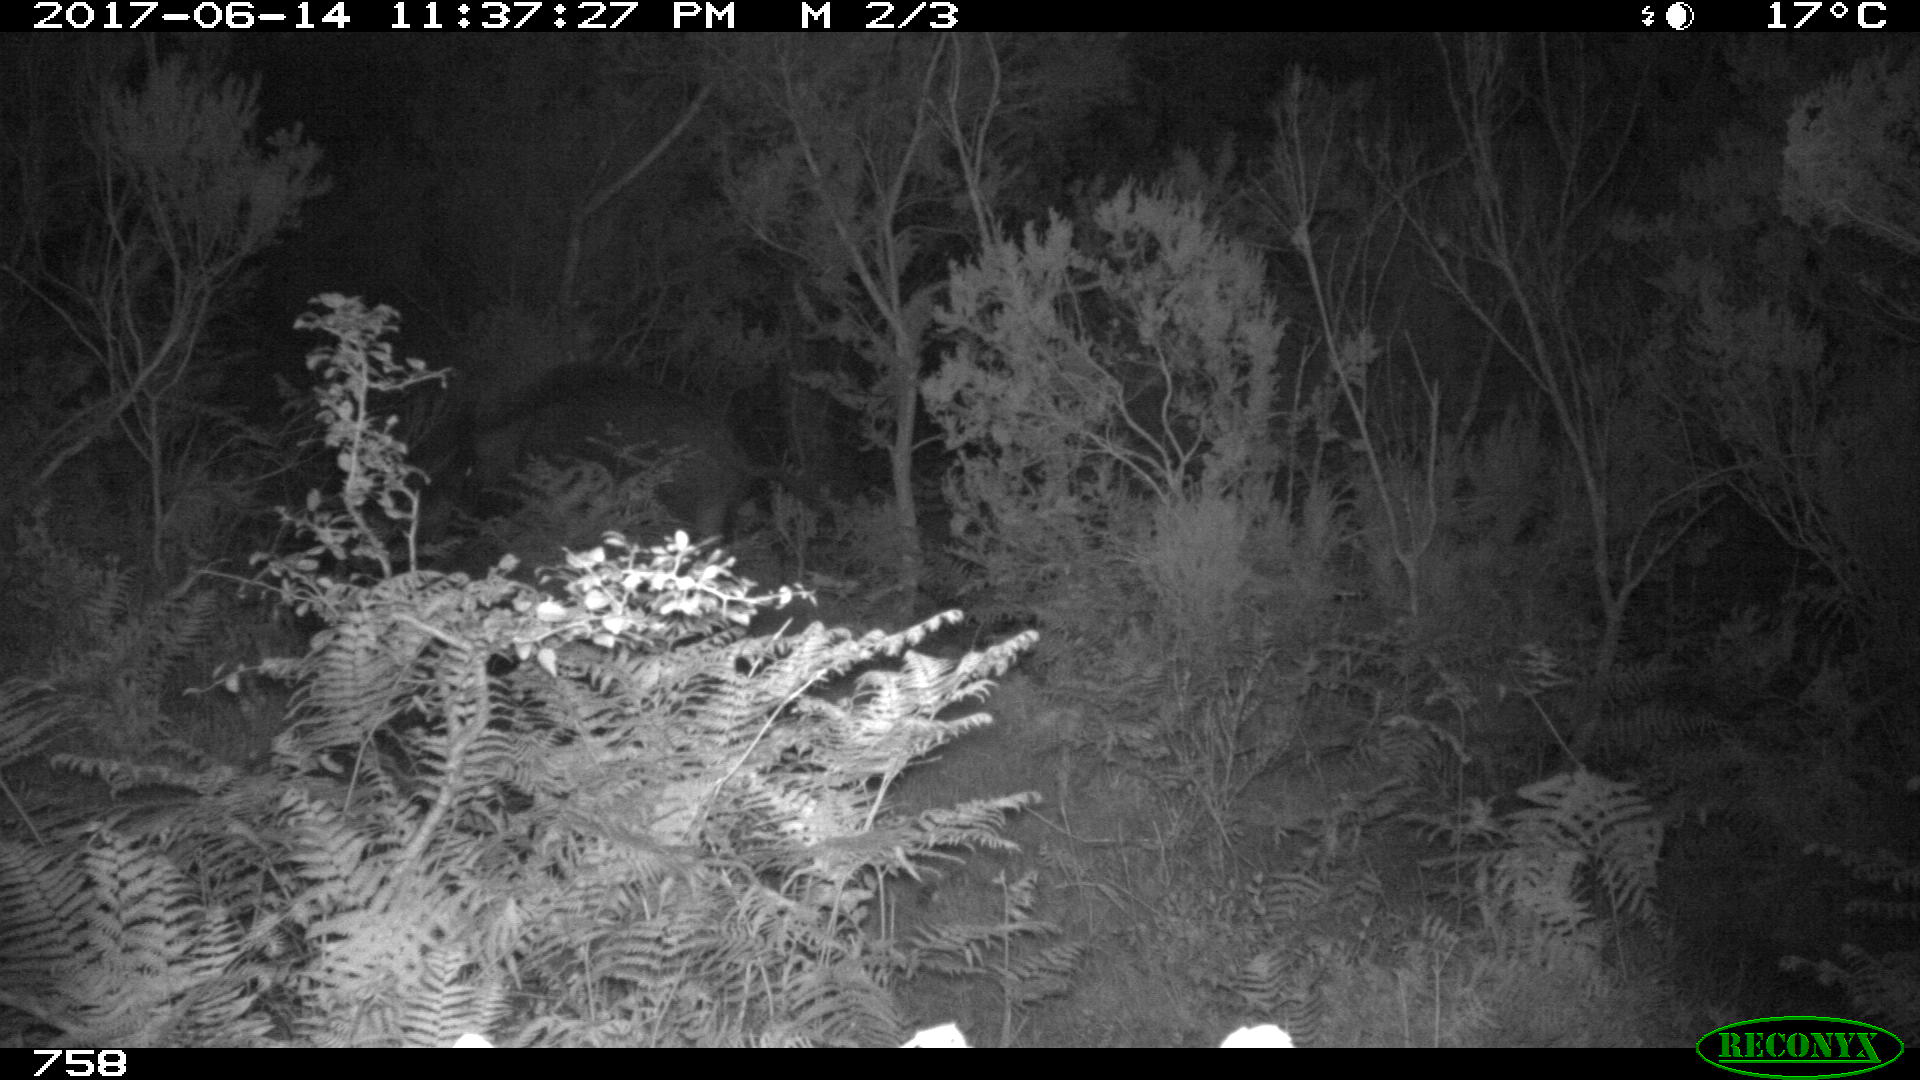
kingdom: Animalia
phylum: Chordata
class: Mammalia
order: Artiodactyla
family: Suidae
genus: Sus
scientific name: Sus scrofa
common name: Wild boar
